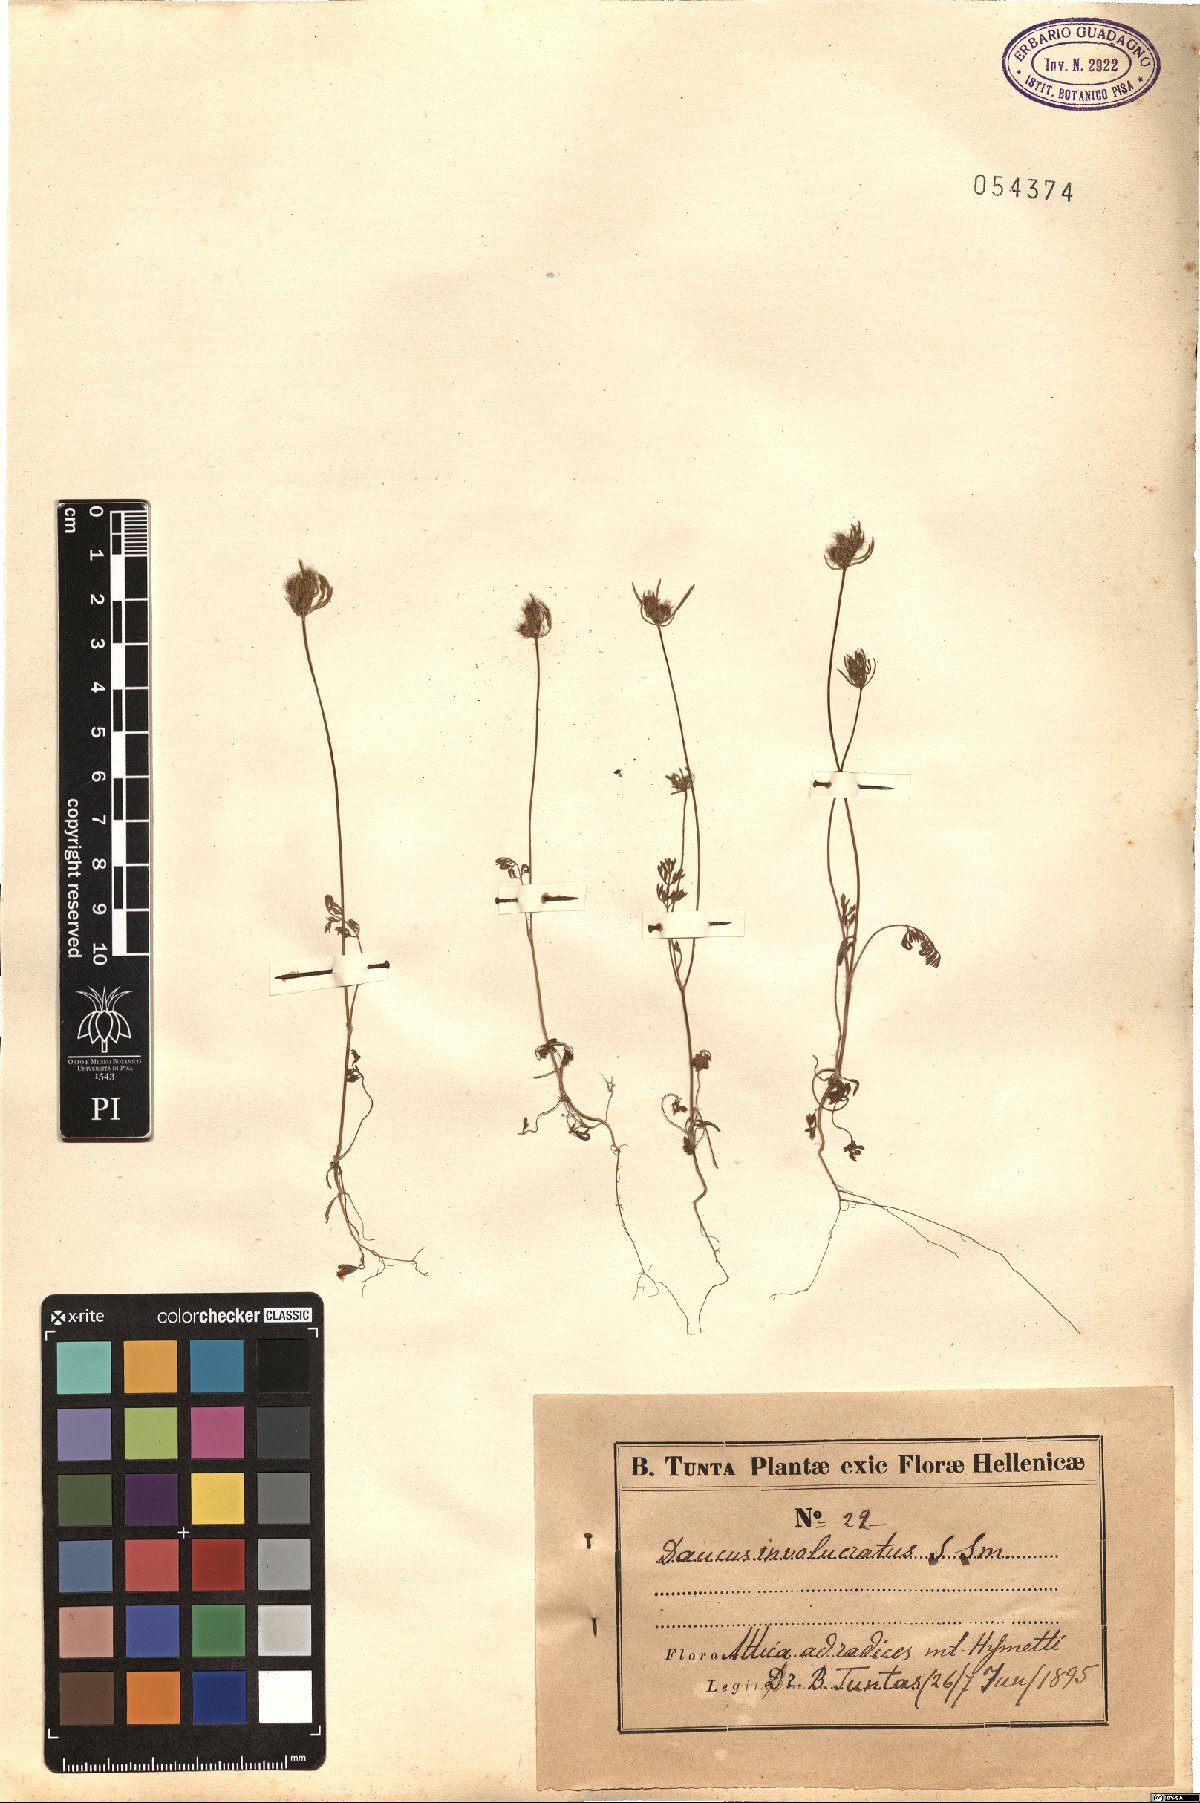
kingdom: Plantae
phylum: Tracheophyta
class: Magnoliopsida
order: Apiales
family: Apiaceae
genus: Daucus
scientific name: Daucus involucratus
